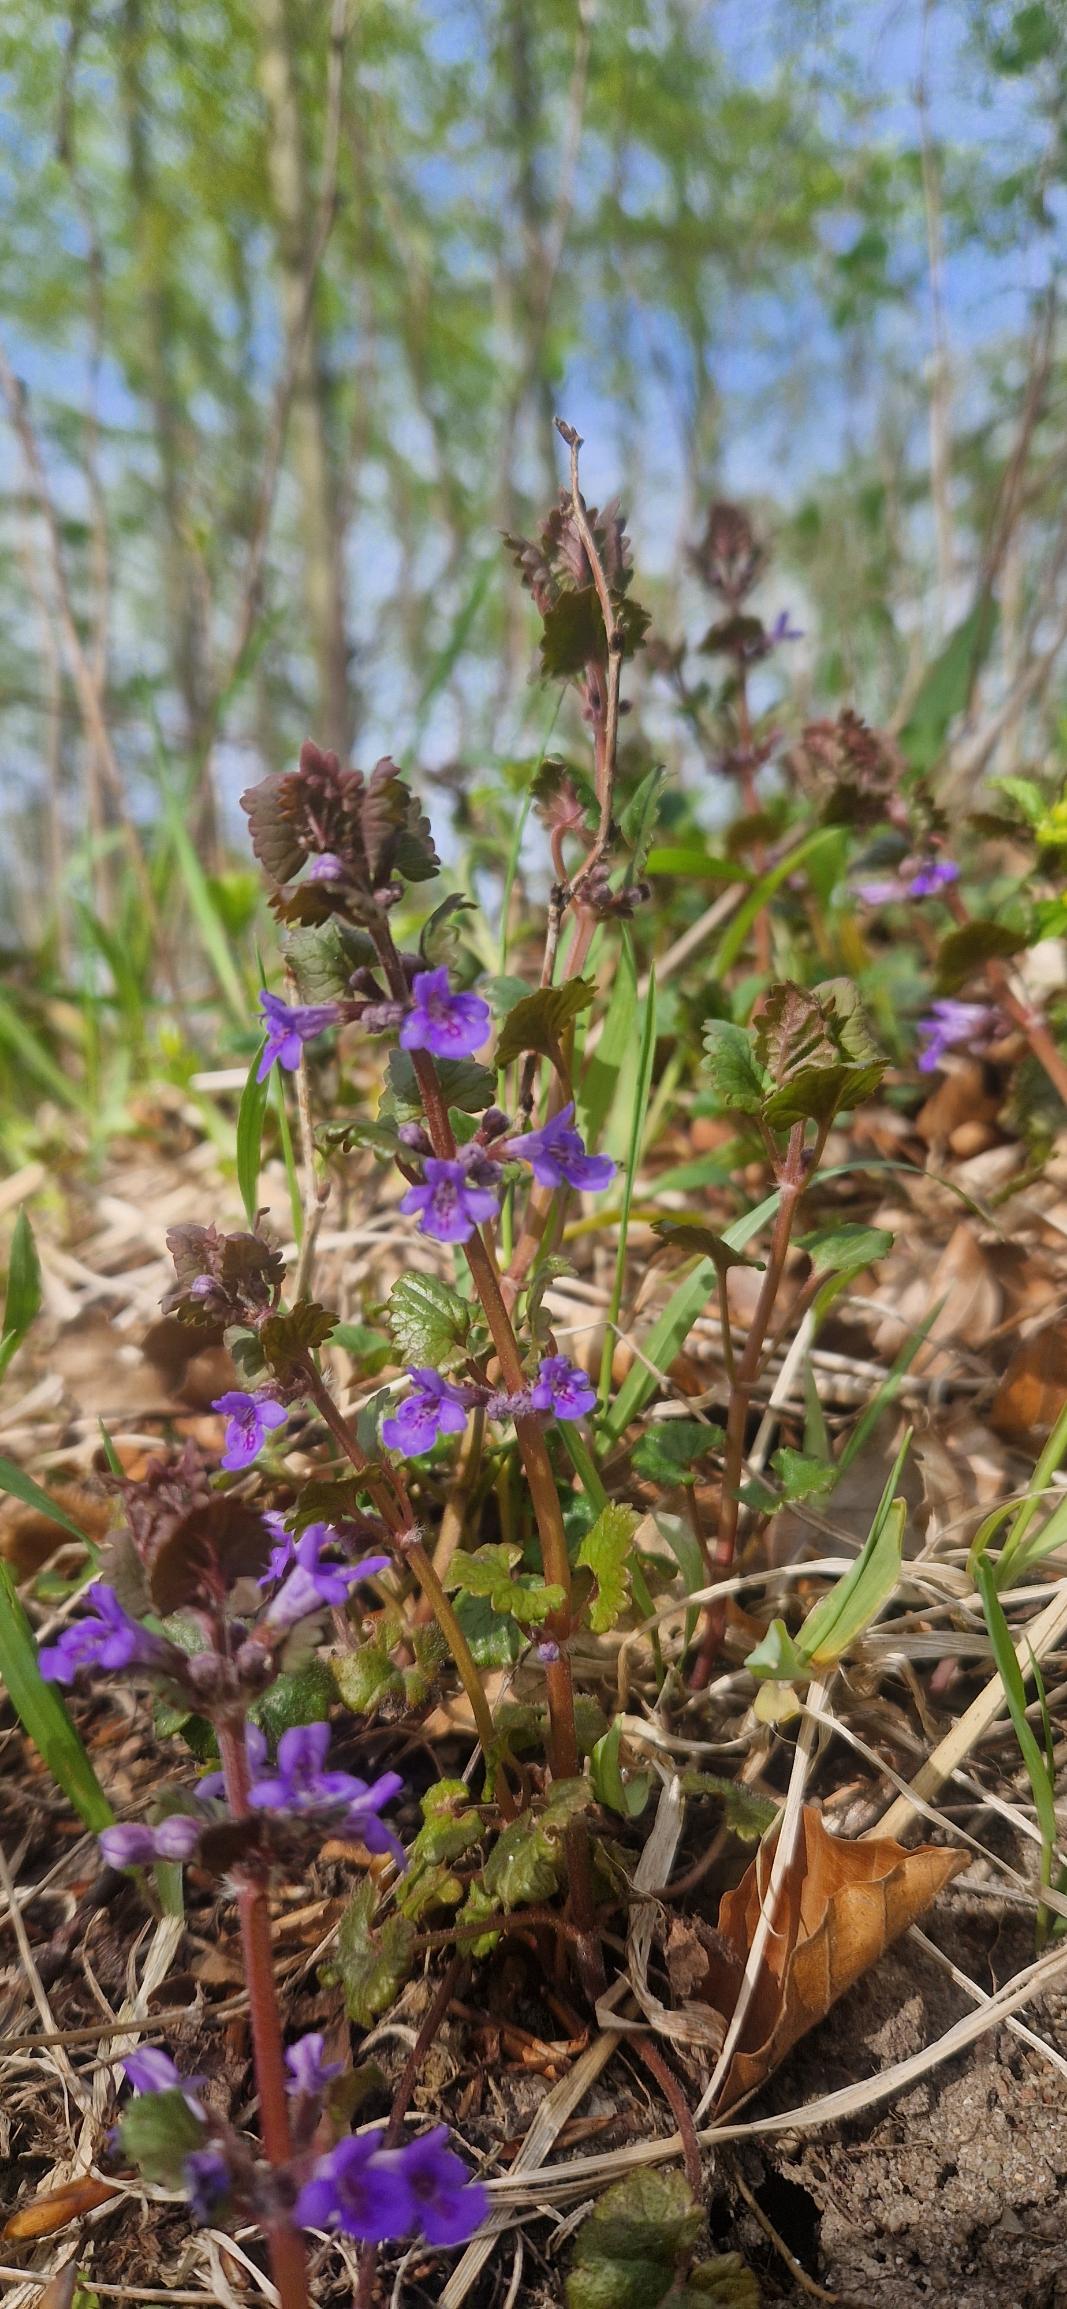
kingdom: Plantae
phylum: Tracheophyta
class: Magnoliopsida
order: Lamiales
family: Lamiaceae
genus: Glechoma
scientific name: Glechoma hederacea
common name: Korsknap
